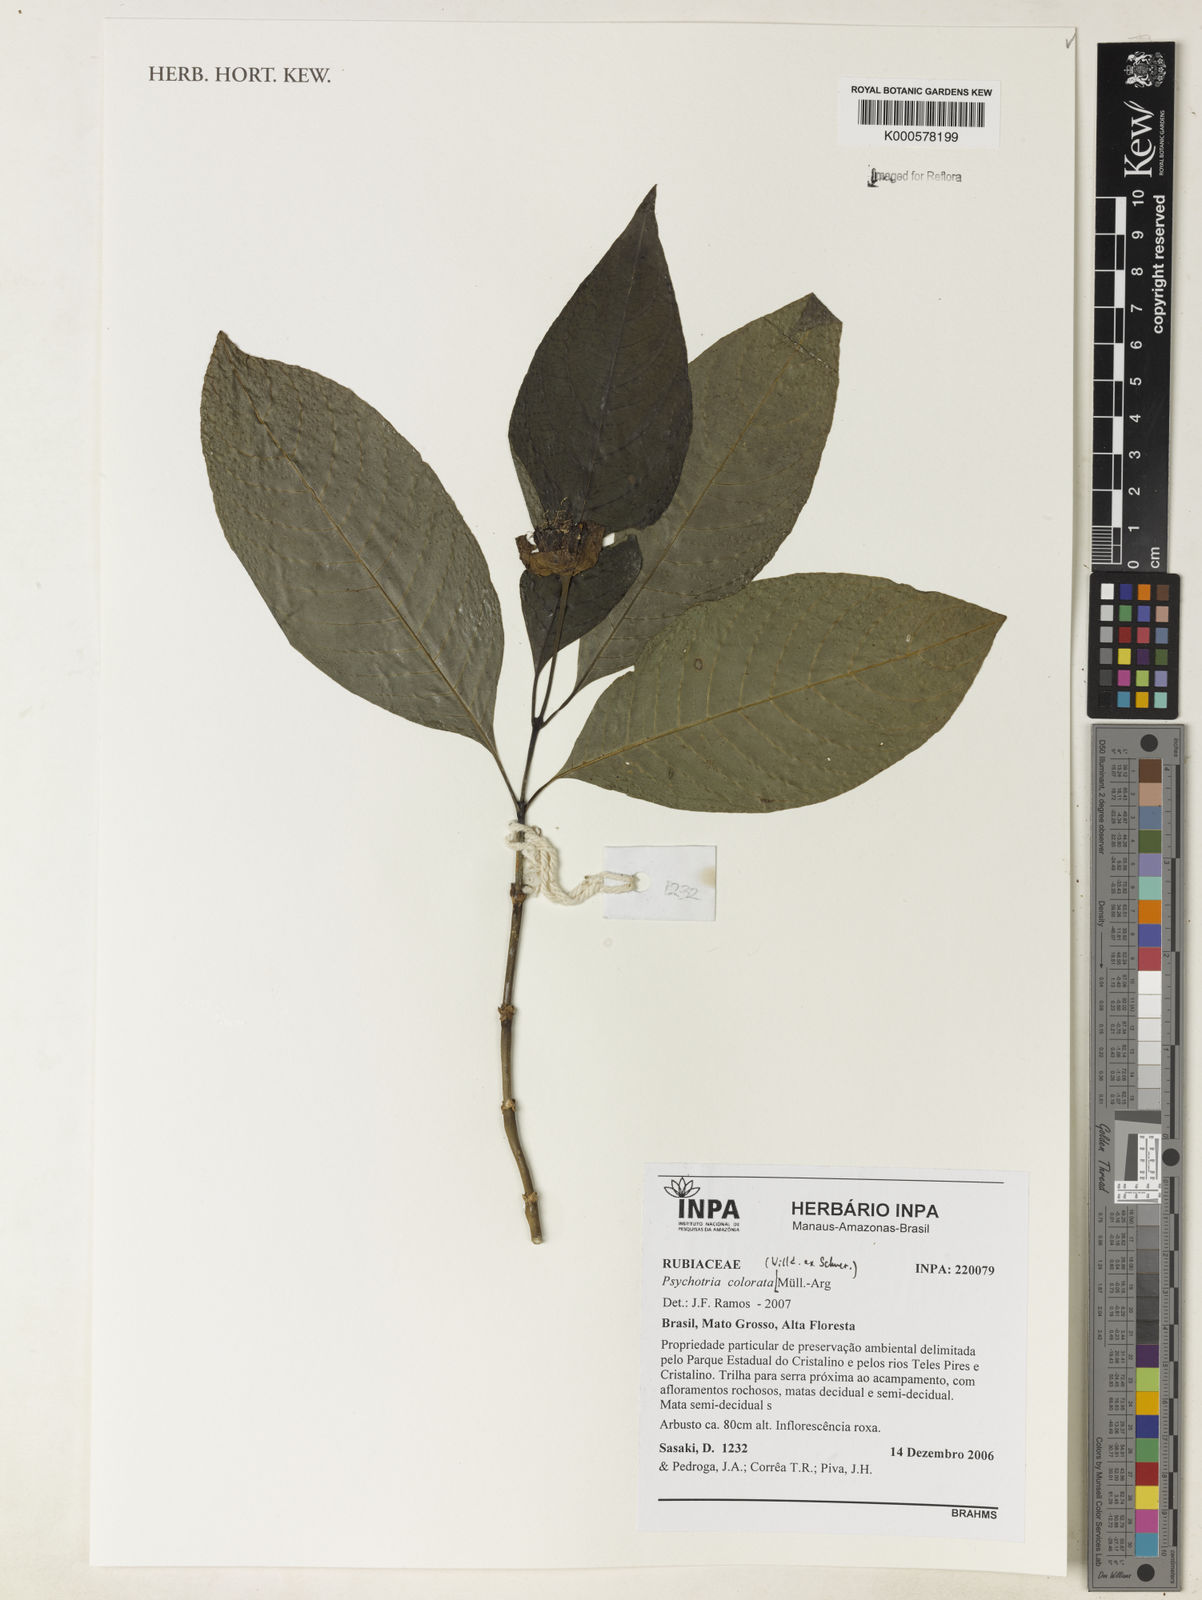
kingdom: Plantae
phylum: Tracheophyta
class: Magnoliopsida
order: Gentianales
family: Rubiaceae
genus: Psychotria
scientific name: Psychotria
